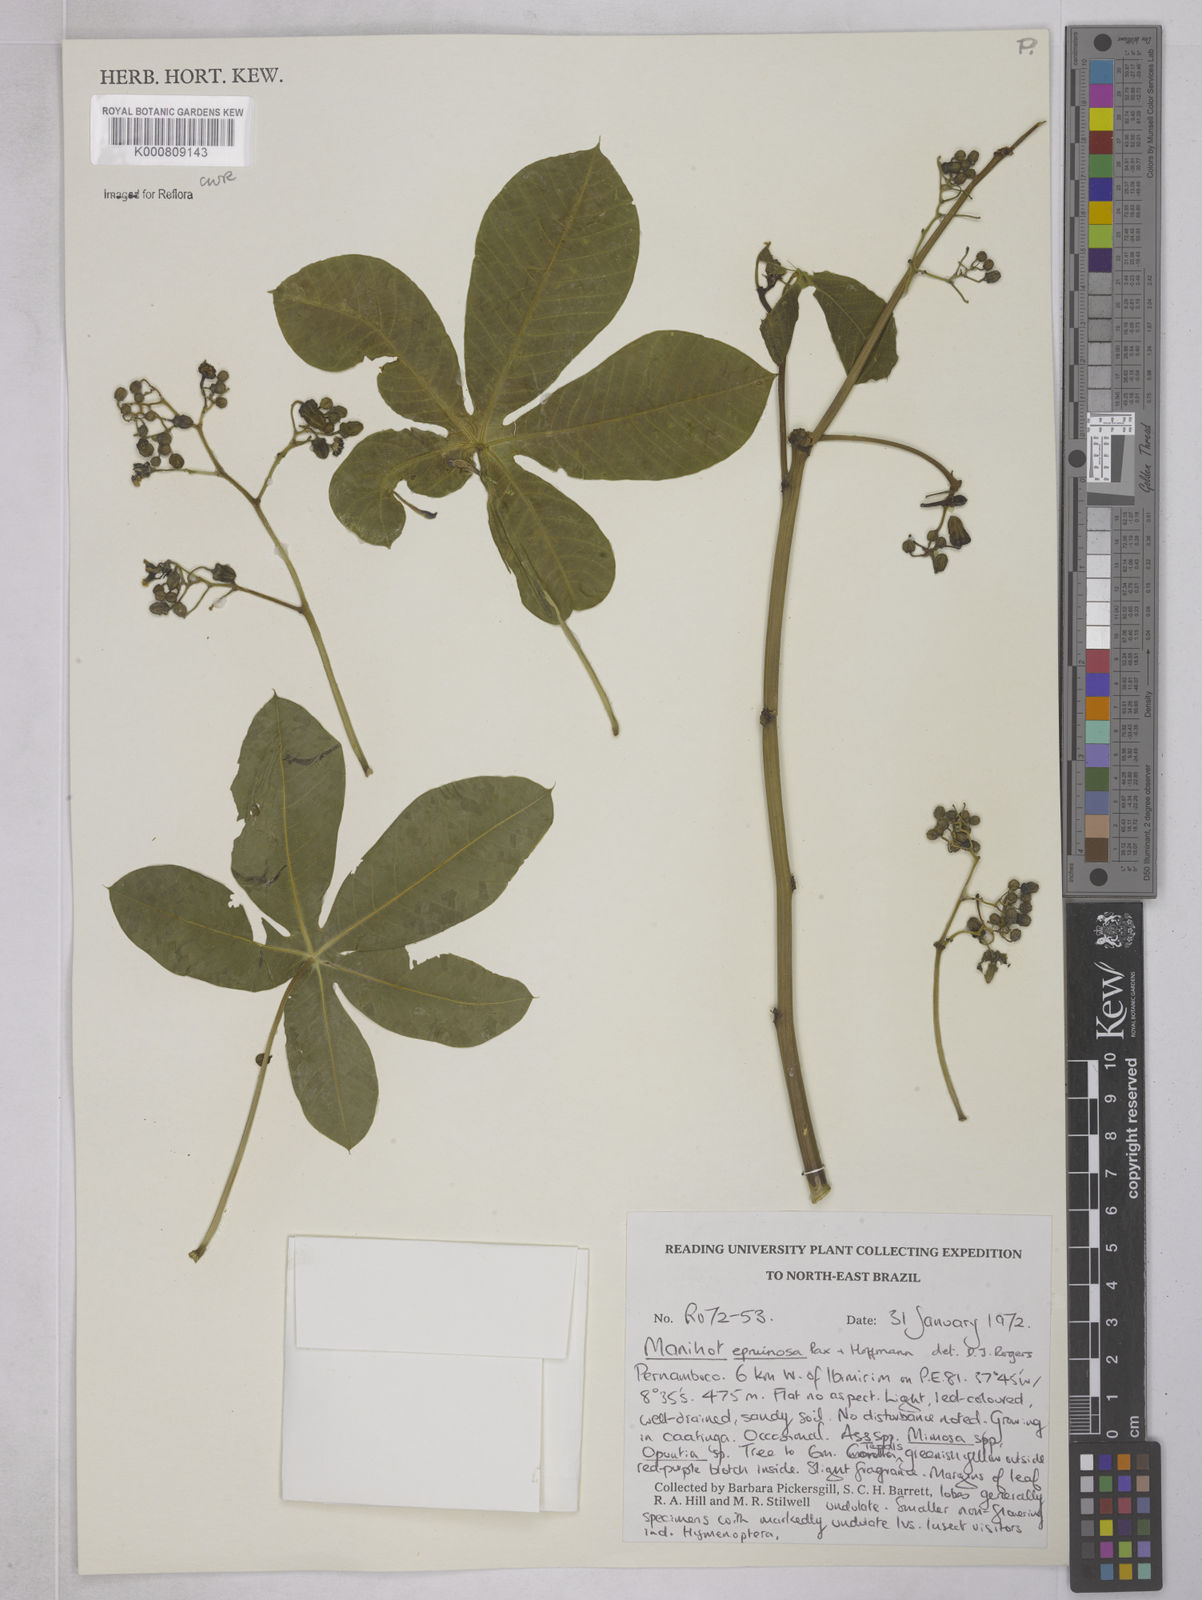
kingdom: Plantae
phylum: Tracheophyta
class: Magnoliopsida
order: Malpighiales
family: Euphorbiaceae
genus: Manihot
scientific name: Manihot epruinosa
